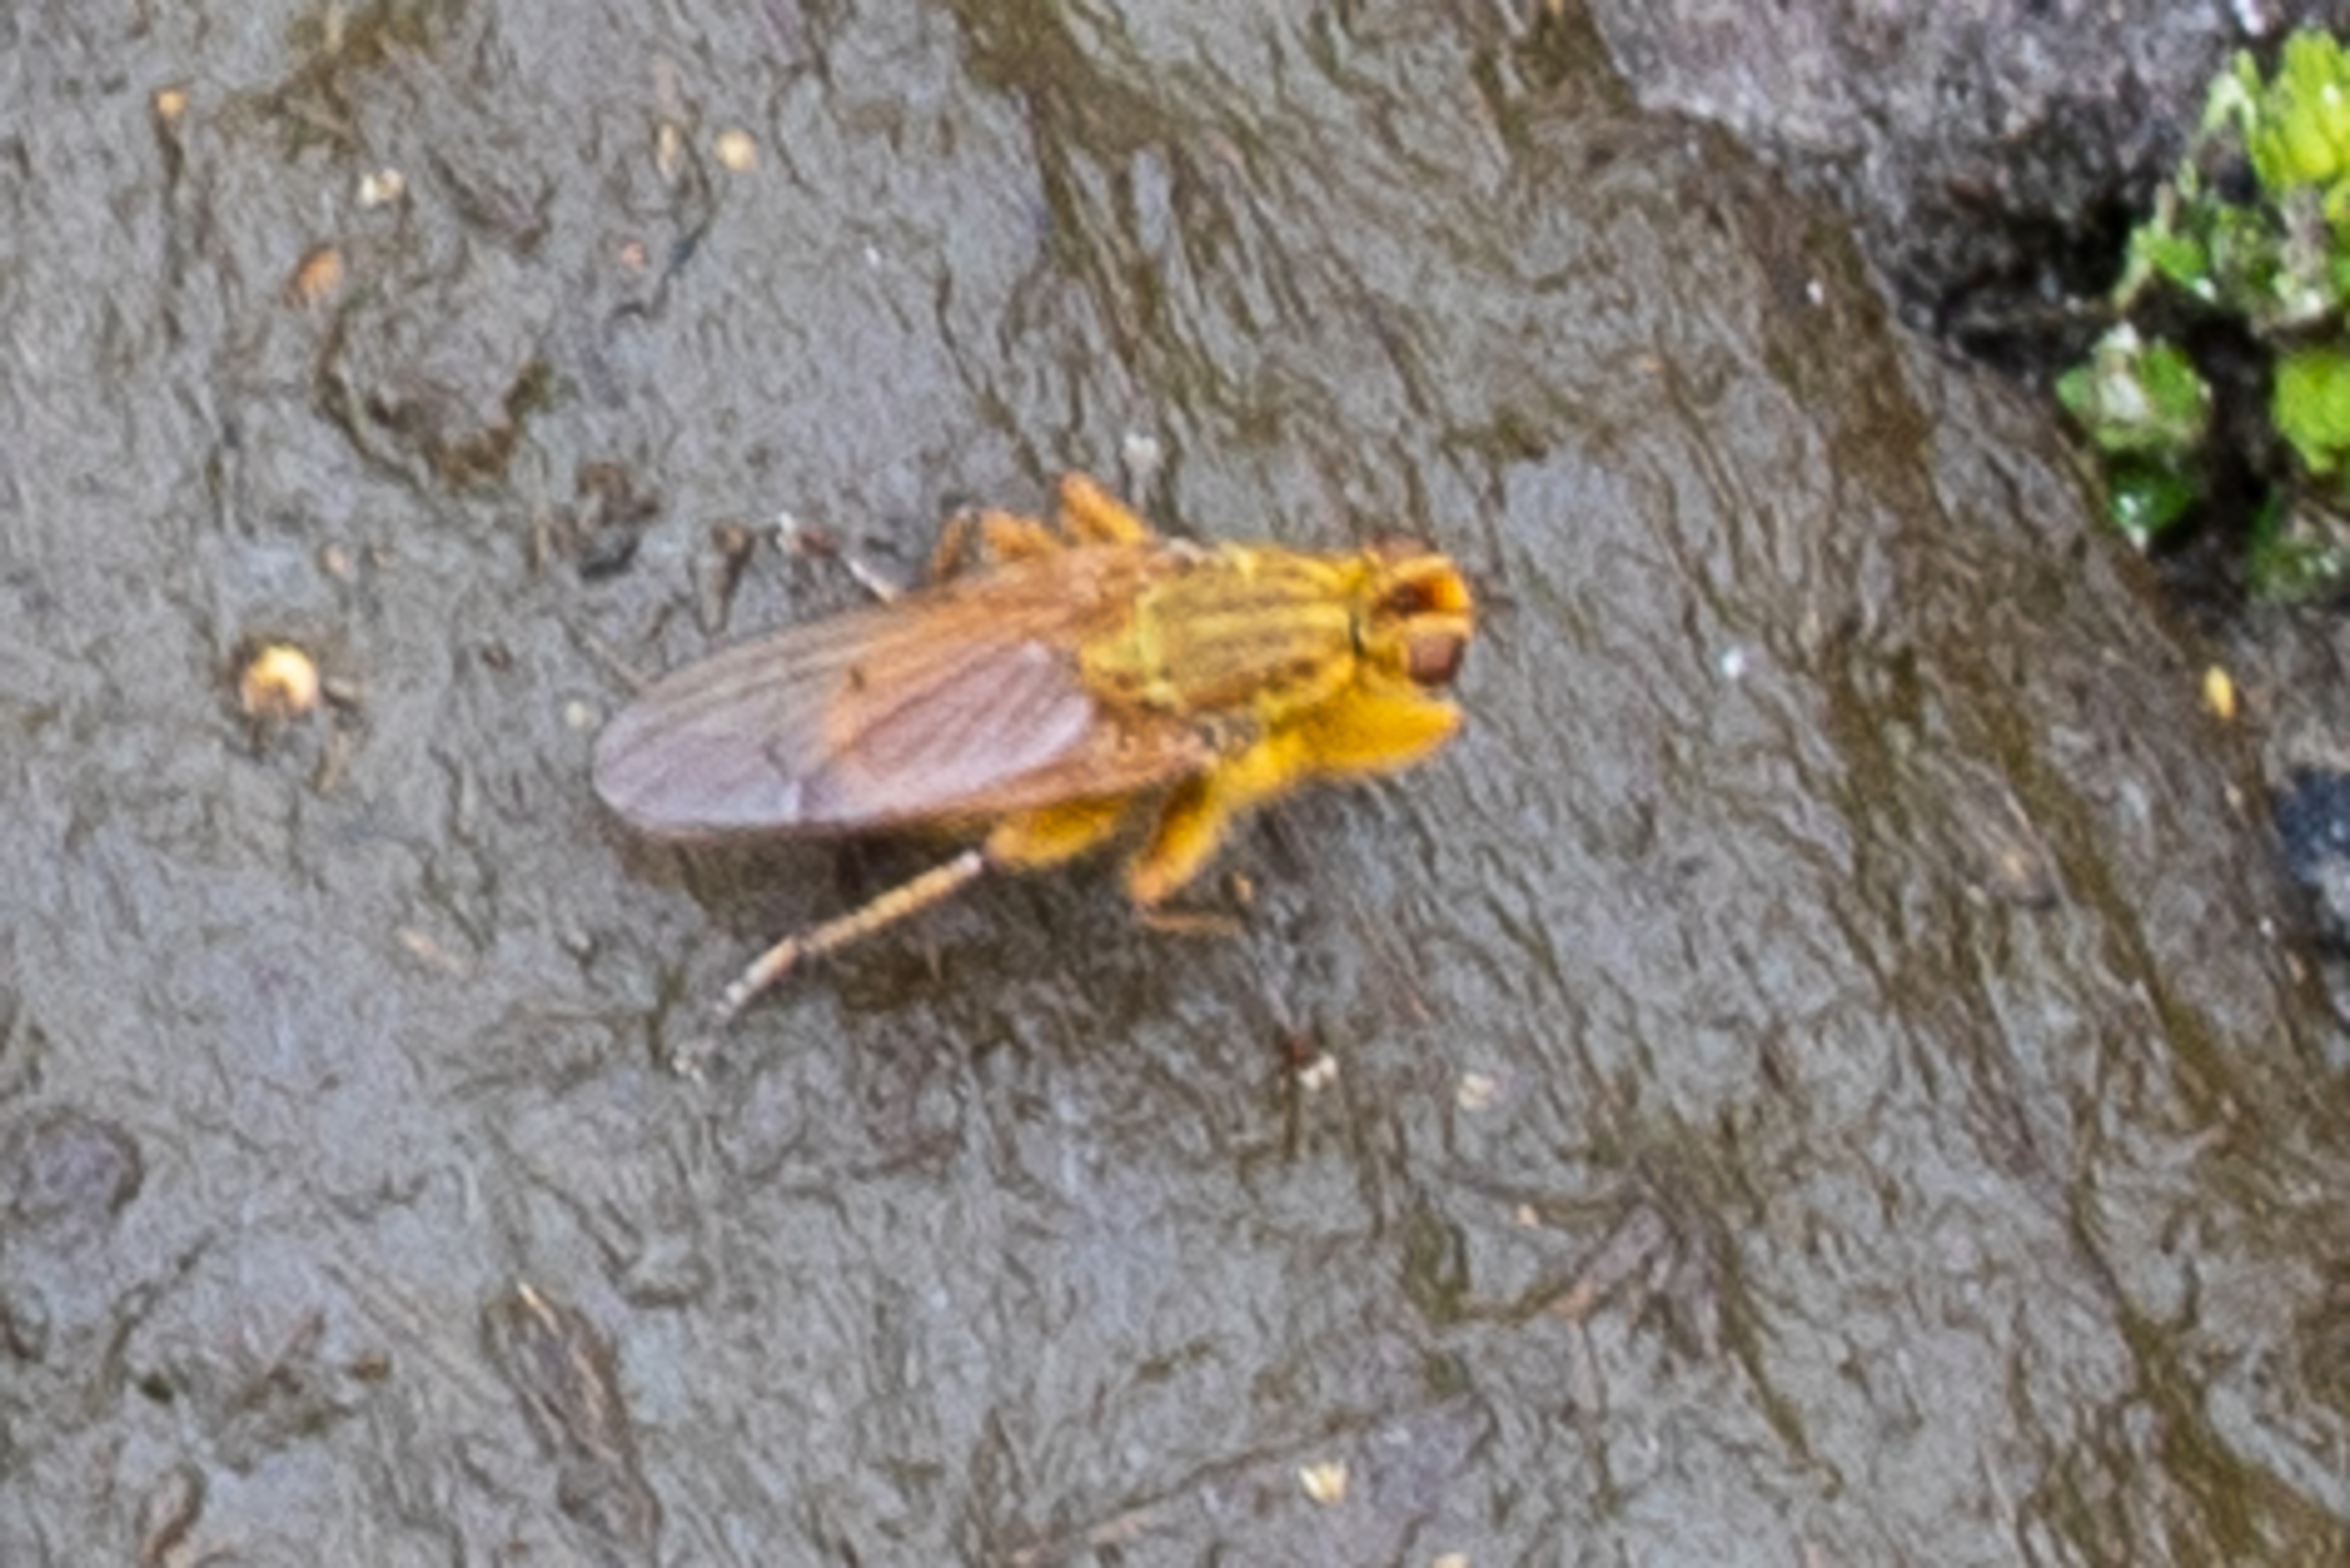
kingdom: Animalia
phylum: Arthropoda
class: Insecta
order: Diptera
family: Scathophagidae
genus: Scathophaga
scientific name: Scathophaga stercoraria
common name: Almindelig gødningsflue
